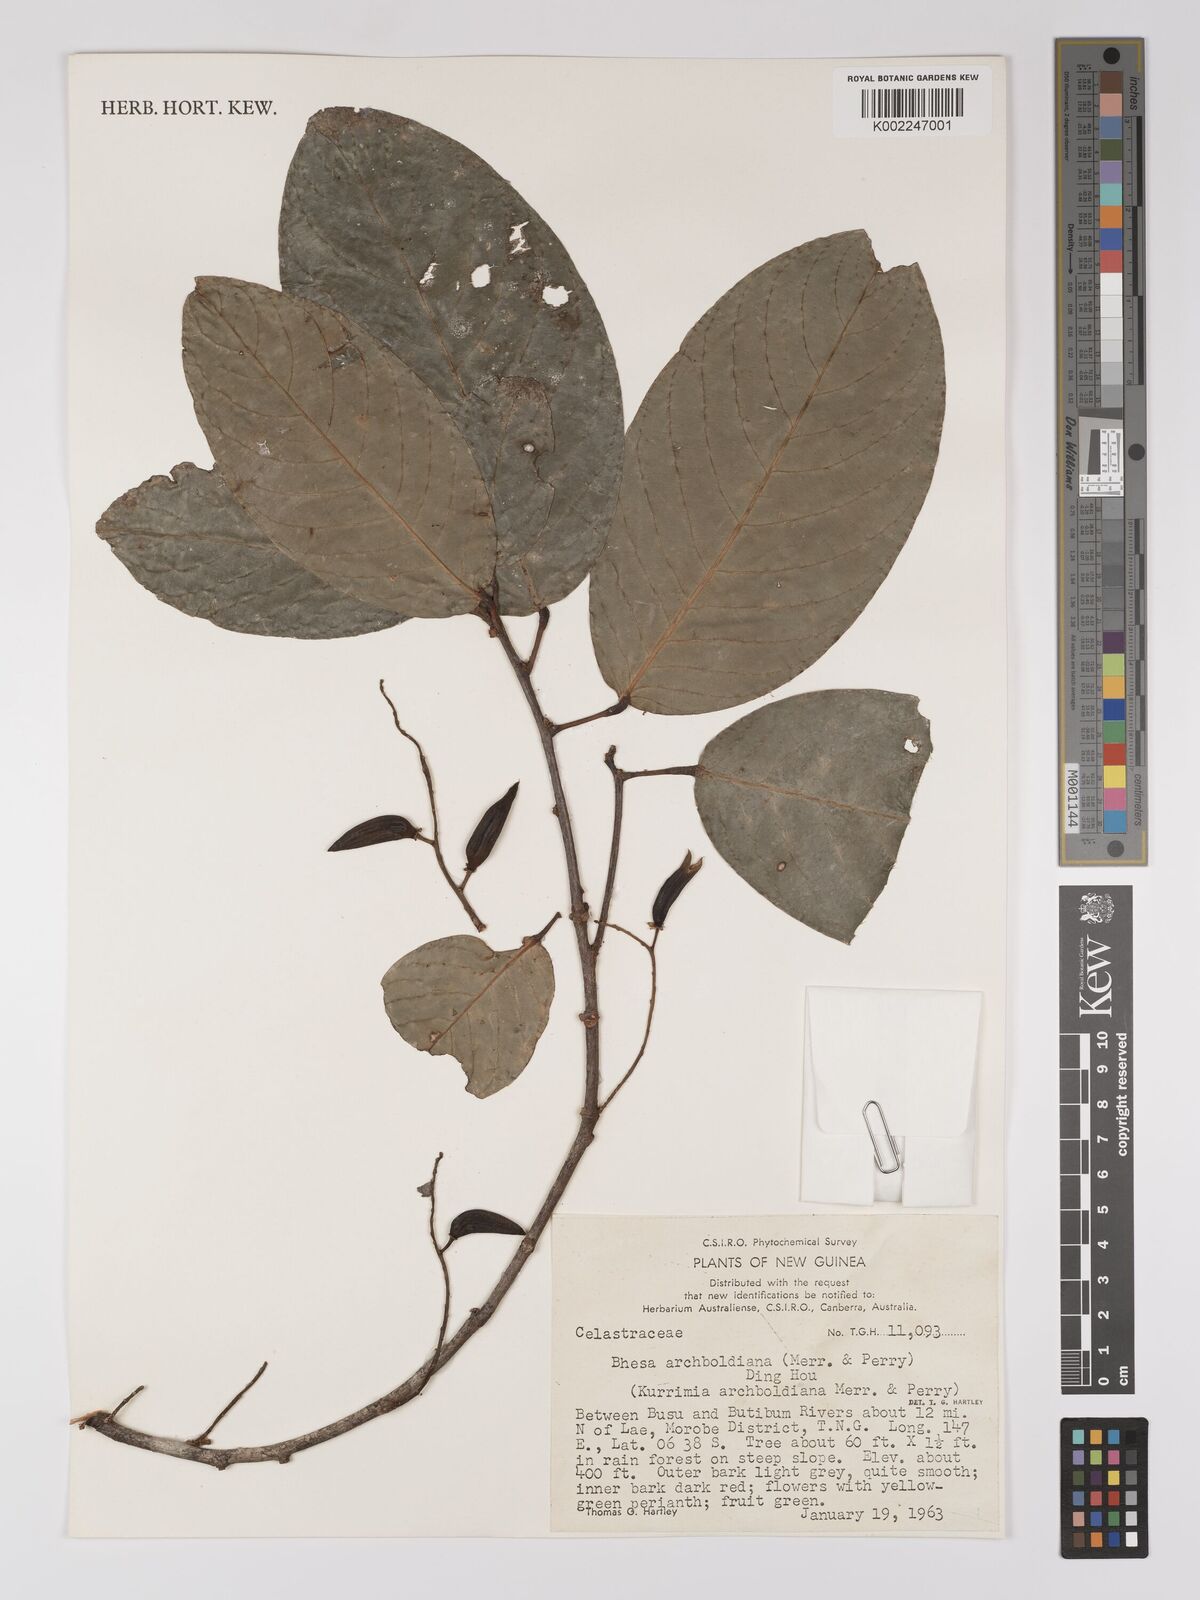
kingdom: Plantae
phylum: Tracheophyta
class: Magnoliopsida
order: Malpighiales
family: Centroplacaceae
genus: Bhesa
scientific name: Bhesa archboldiana
